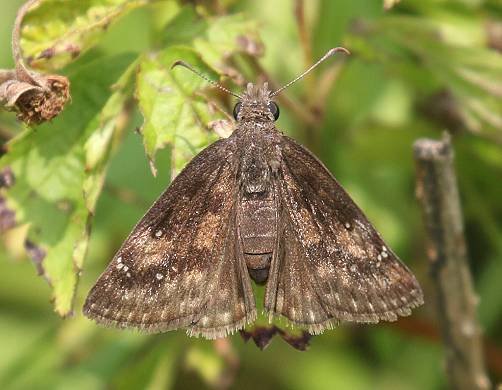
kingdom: Animalia
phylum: Arthropoda
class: Insecta
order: Lepidoptera
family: Hesperiidae
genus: Gesta
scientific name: Gesta
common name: Wild Indigo Duskywing
